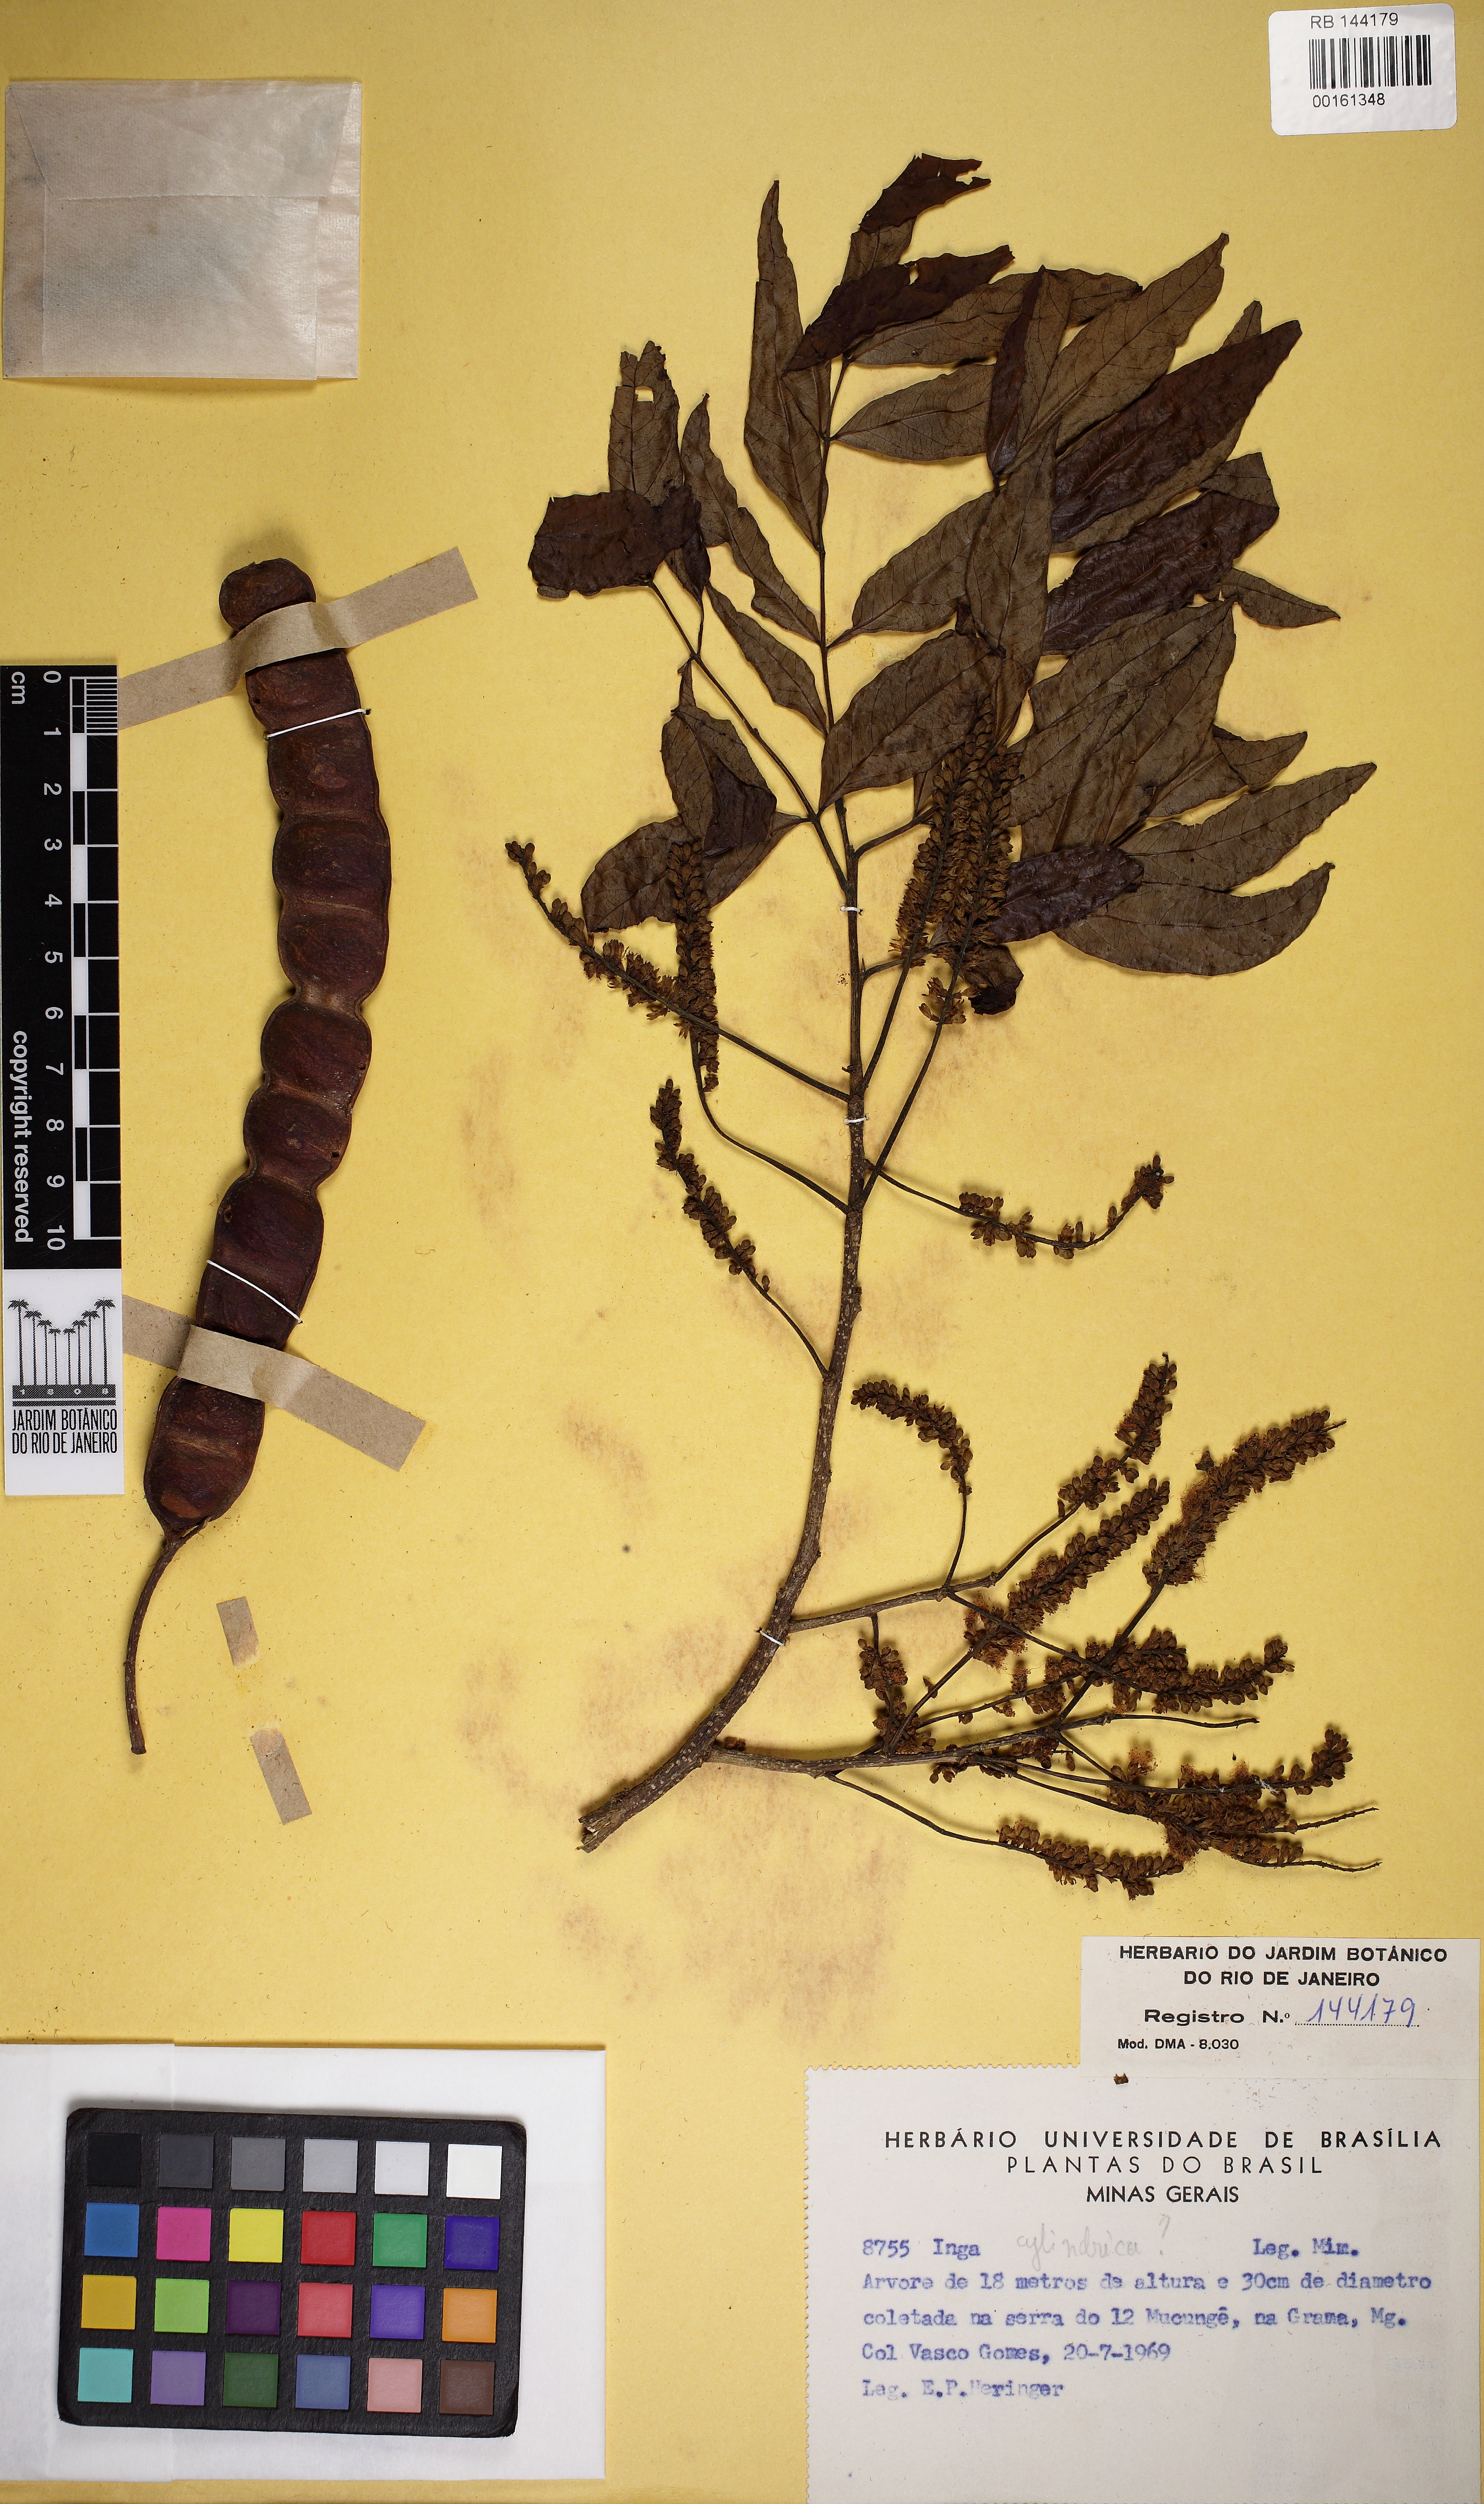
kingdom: Plantae
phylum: Tracheophyta
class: Magnoliopsida
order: Fabales
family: Fabaceae
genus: Inga
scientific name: Inga cylindrica
